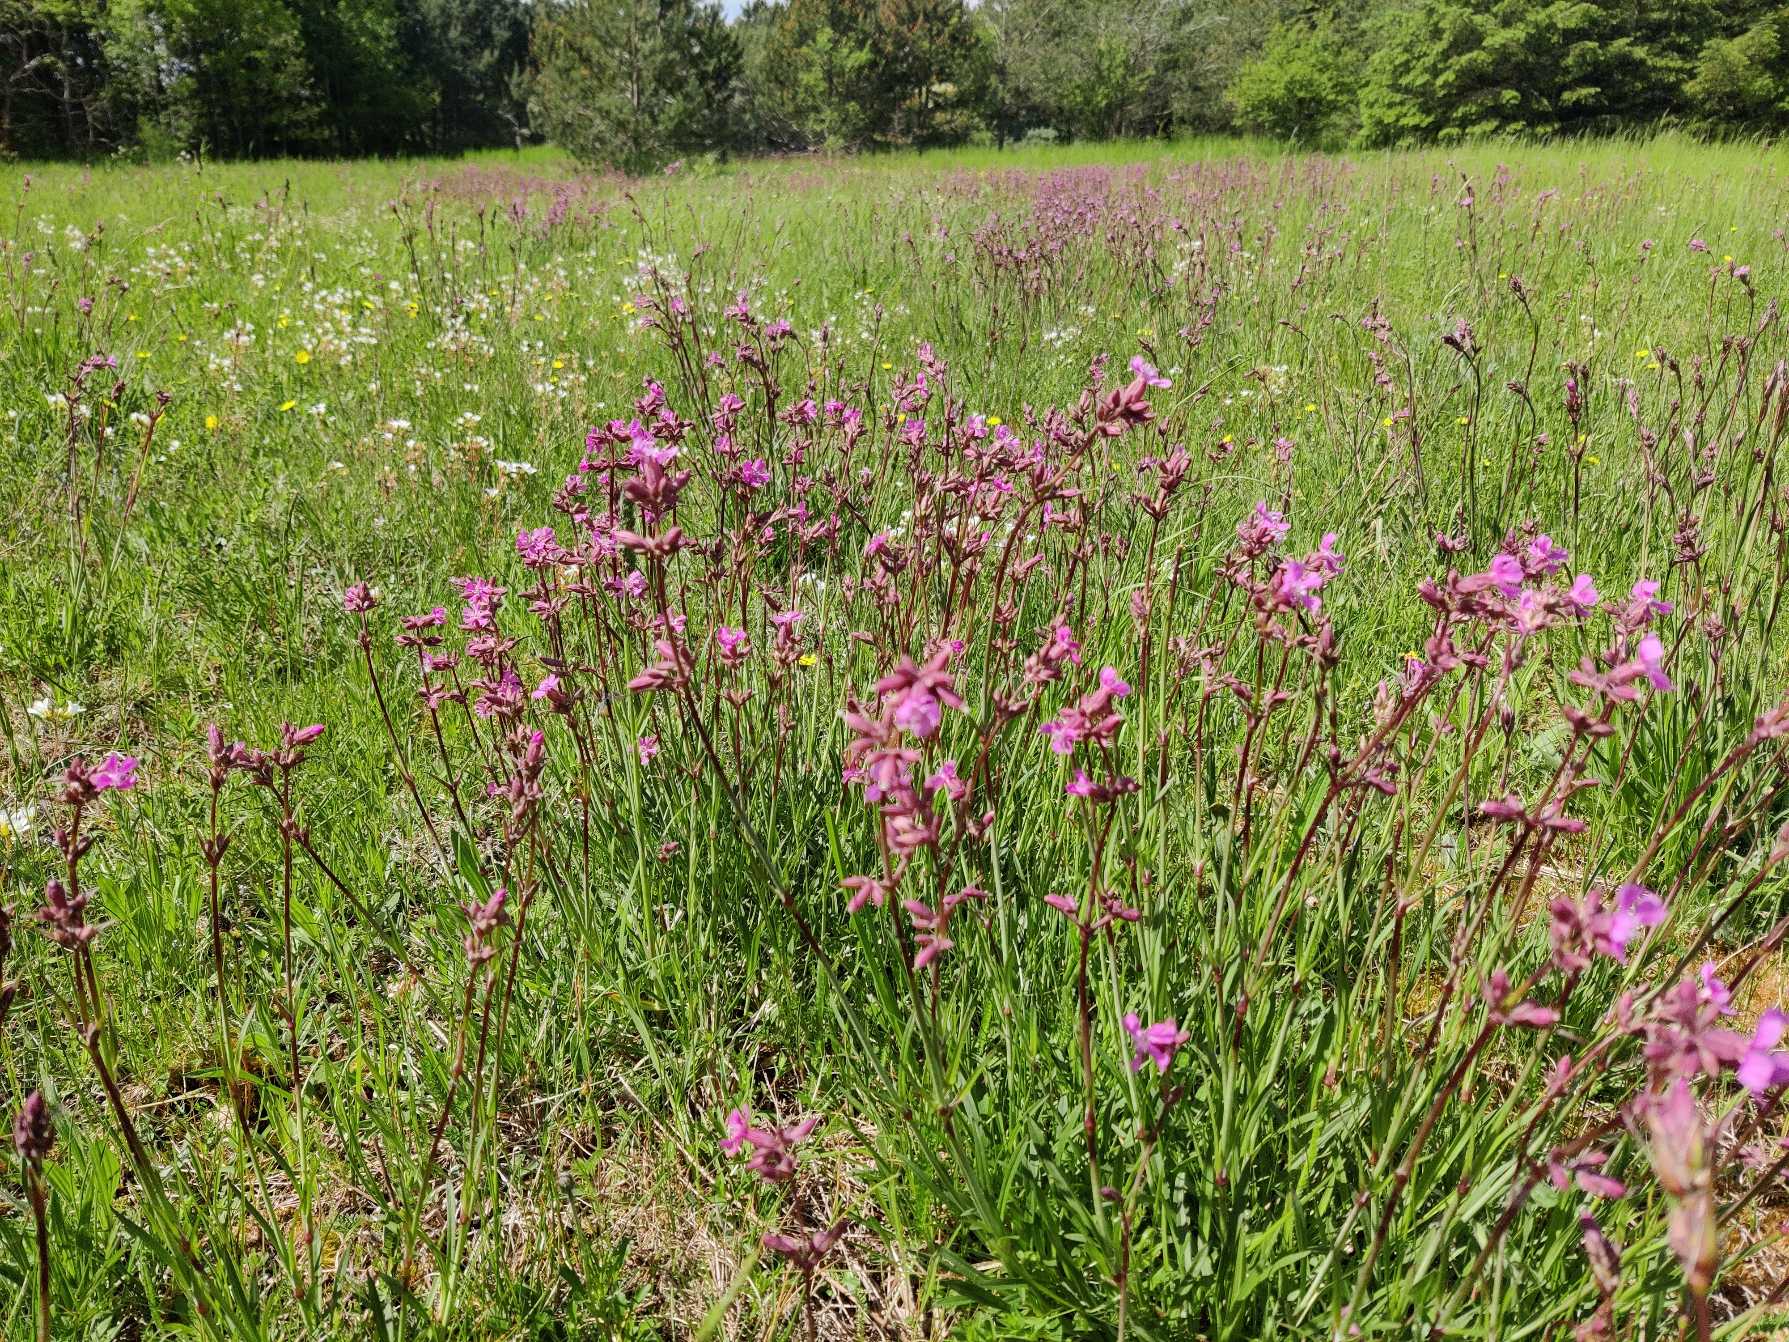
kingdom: Plantae
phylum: Tracheophyta
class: Magnoliopsida
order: Caryophyllales
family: Caryophyllaceae
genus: Viscaria
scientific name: Viscaria vulgaris
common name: Tjærenellike
